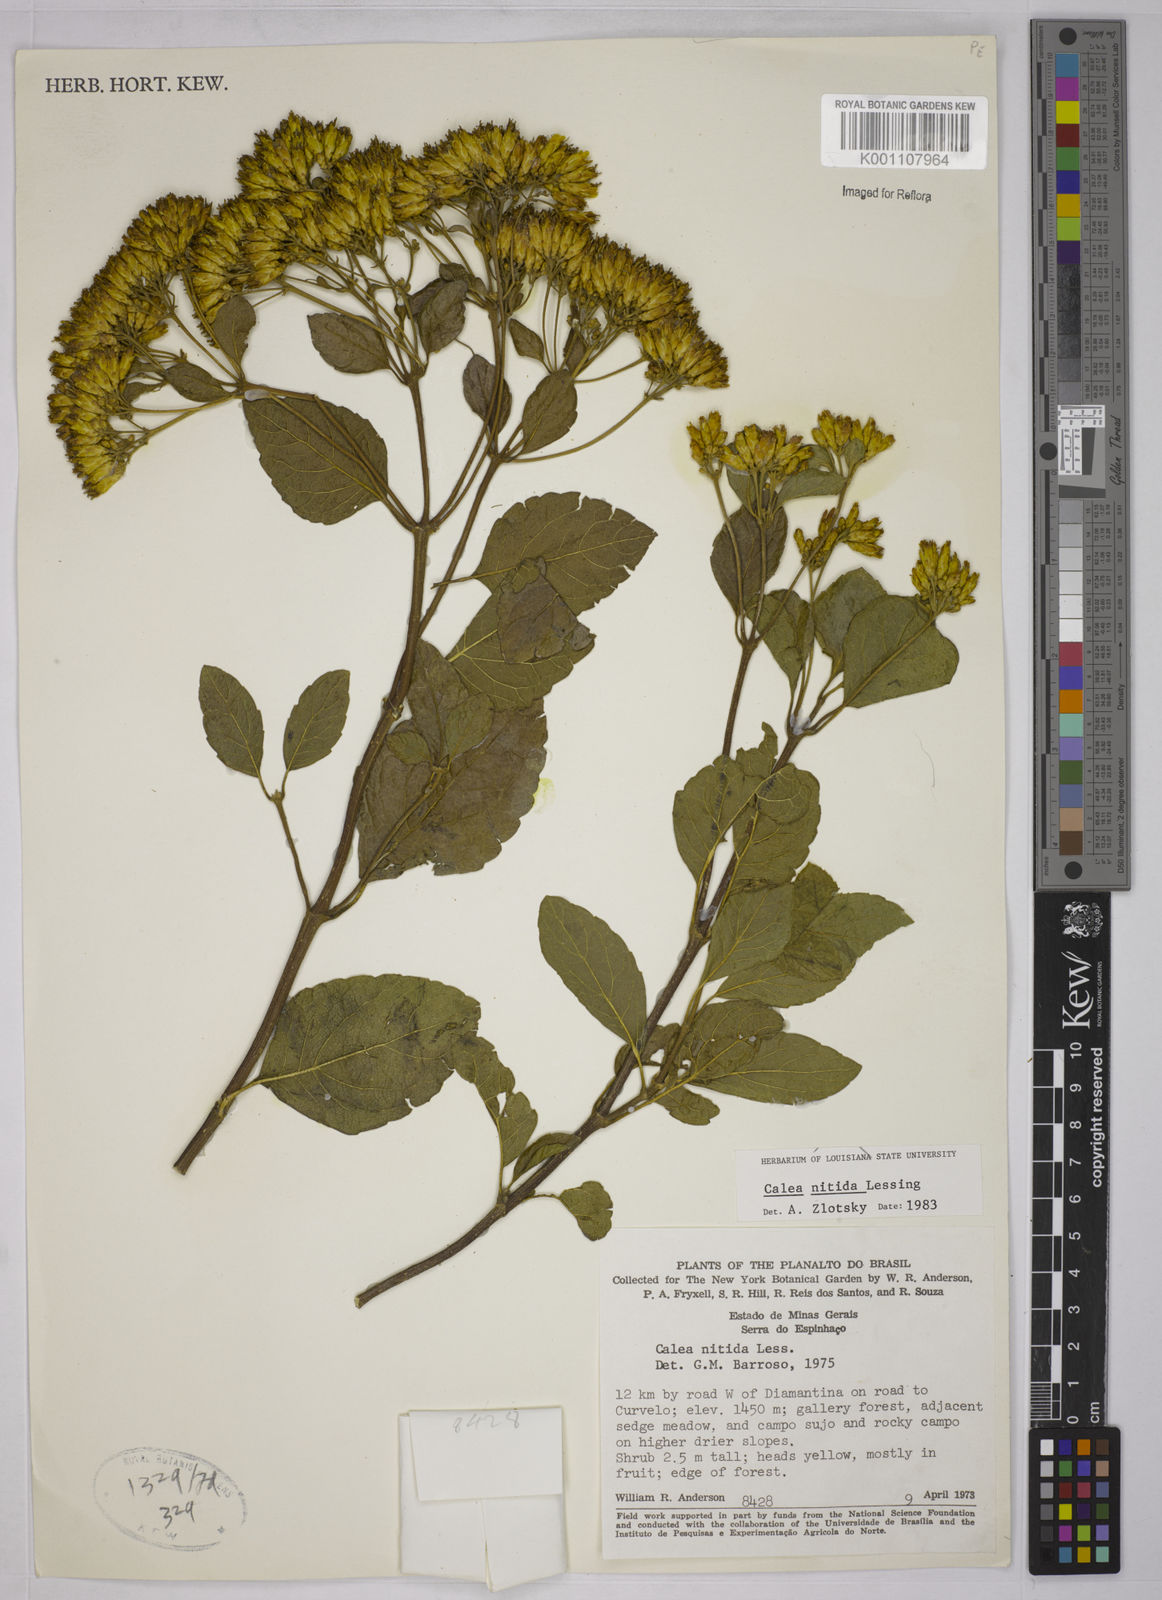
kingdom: Plantae
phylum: Tracheophyta
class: Magnoliopsida
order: Asterales
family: Asteraceae
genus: Calea
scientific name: Calea nitida
